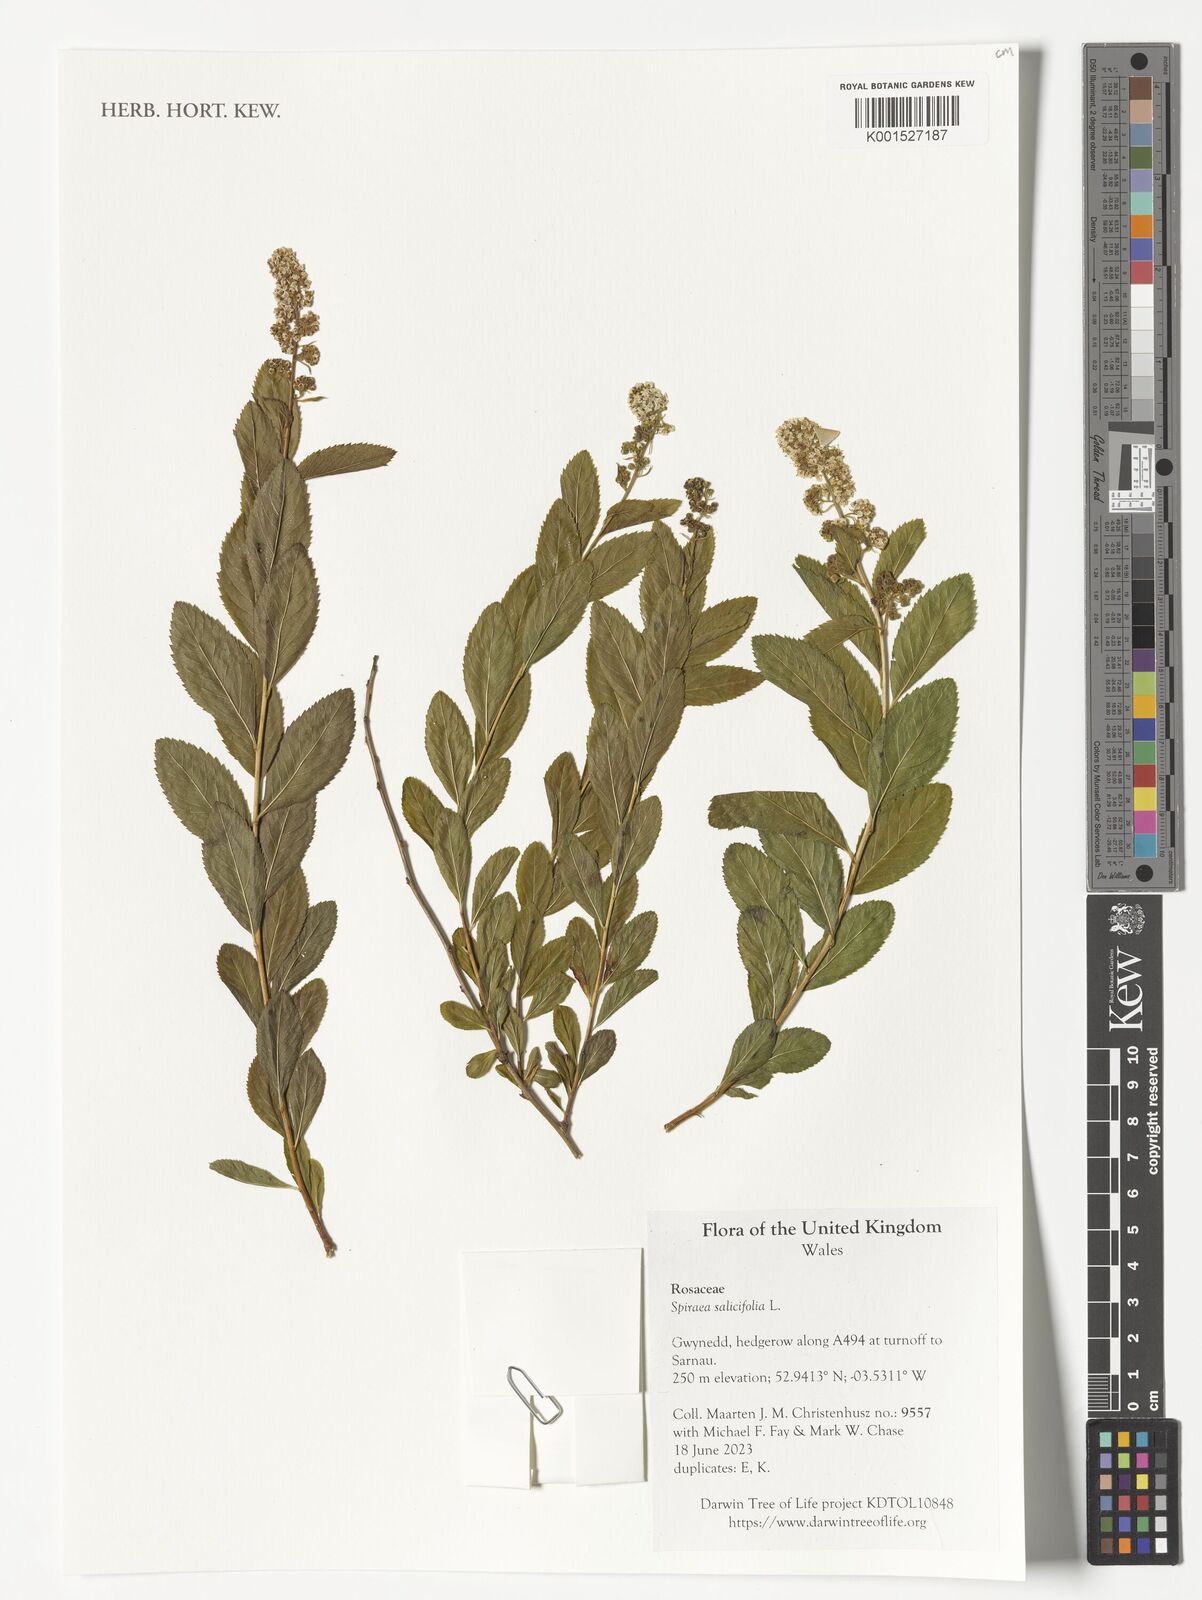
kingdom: Plantae
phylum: Tracheophyta
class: Magnoliopsida
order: Rosales
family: Rosaceae
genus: Spiraea
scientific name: Spiraea salicifolia
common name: Bridewort
